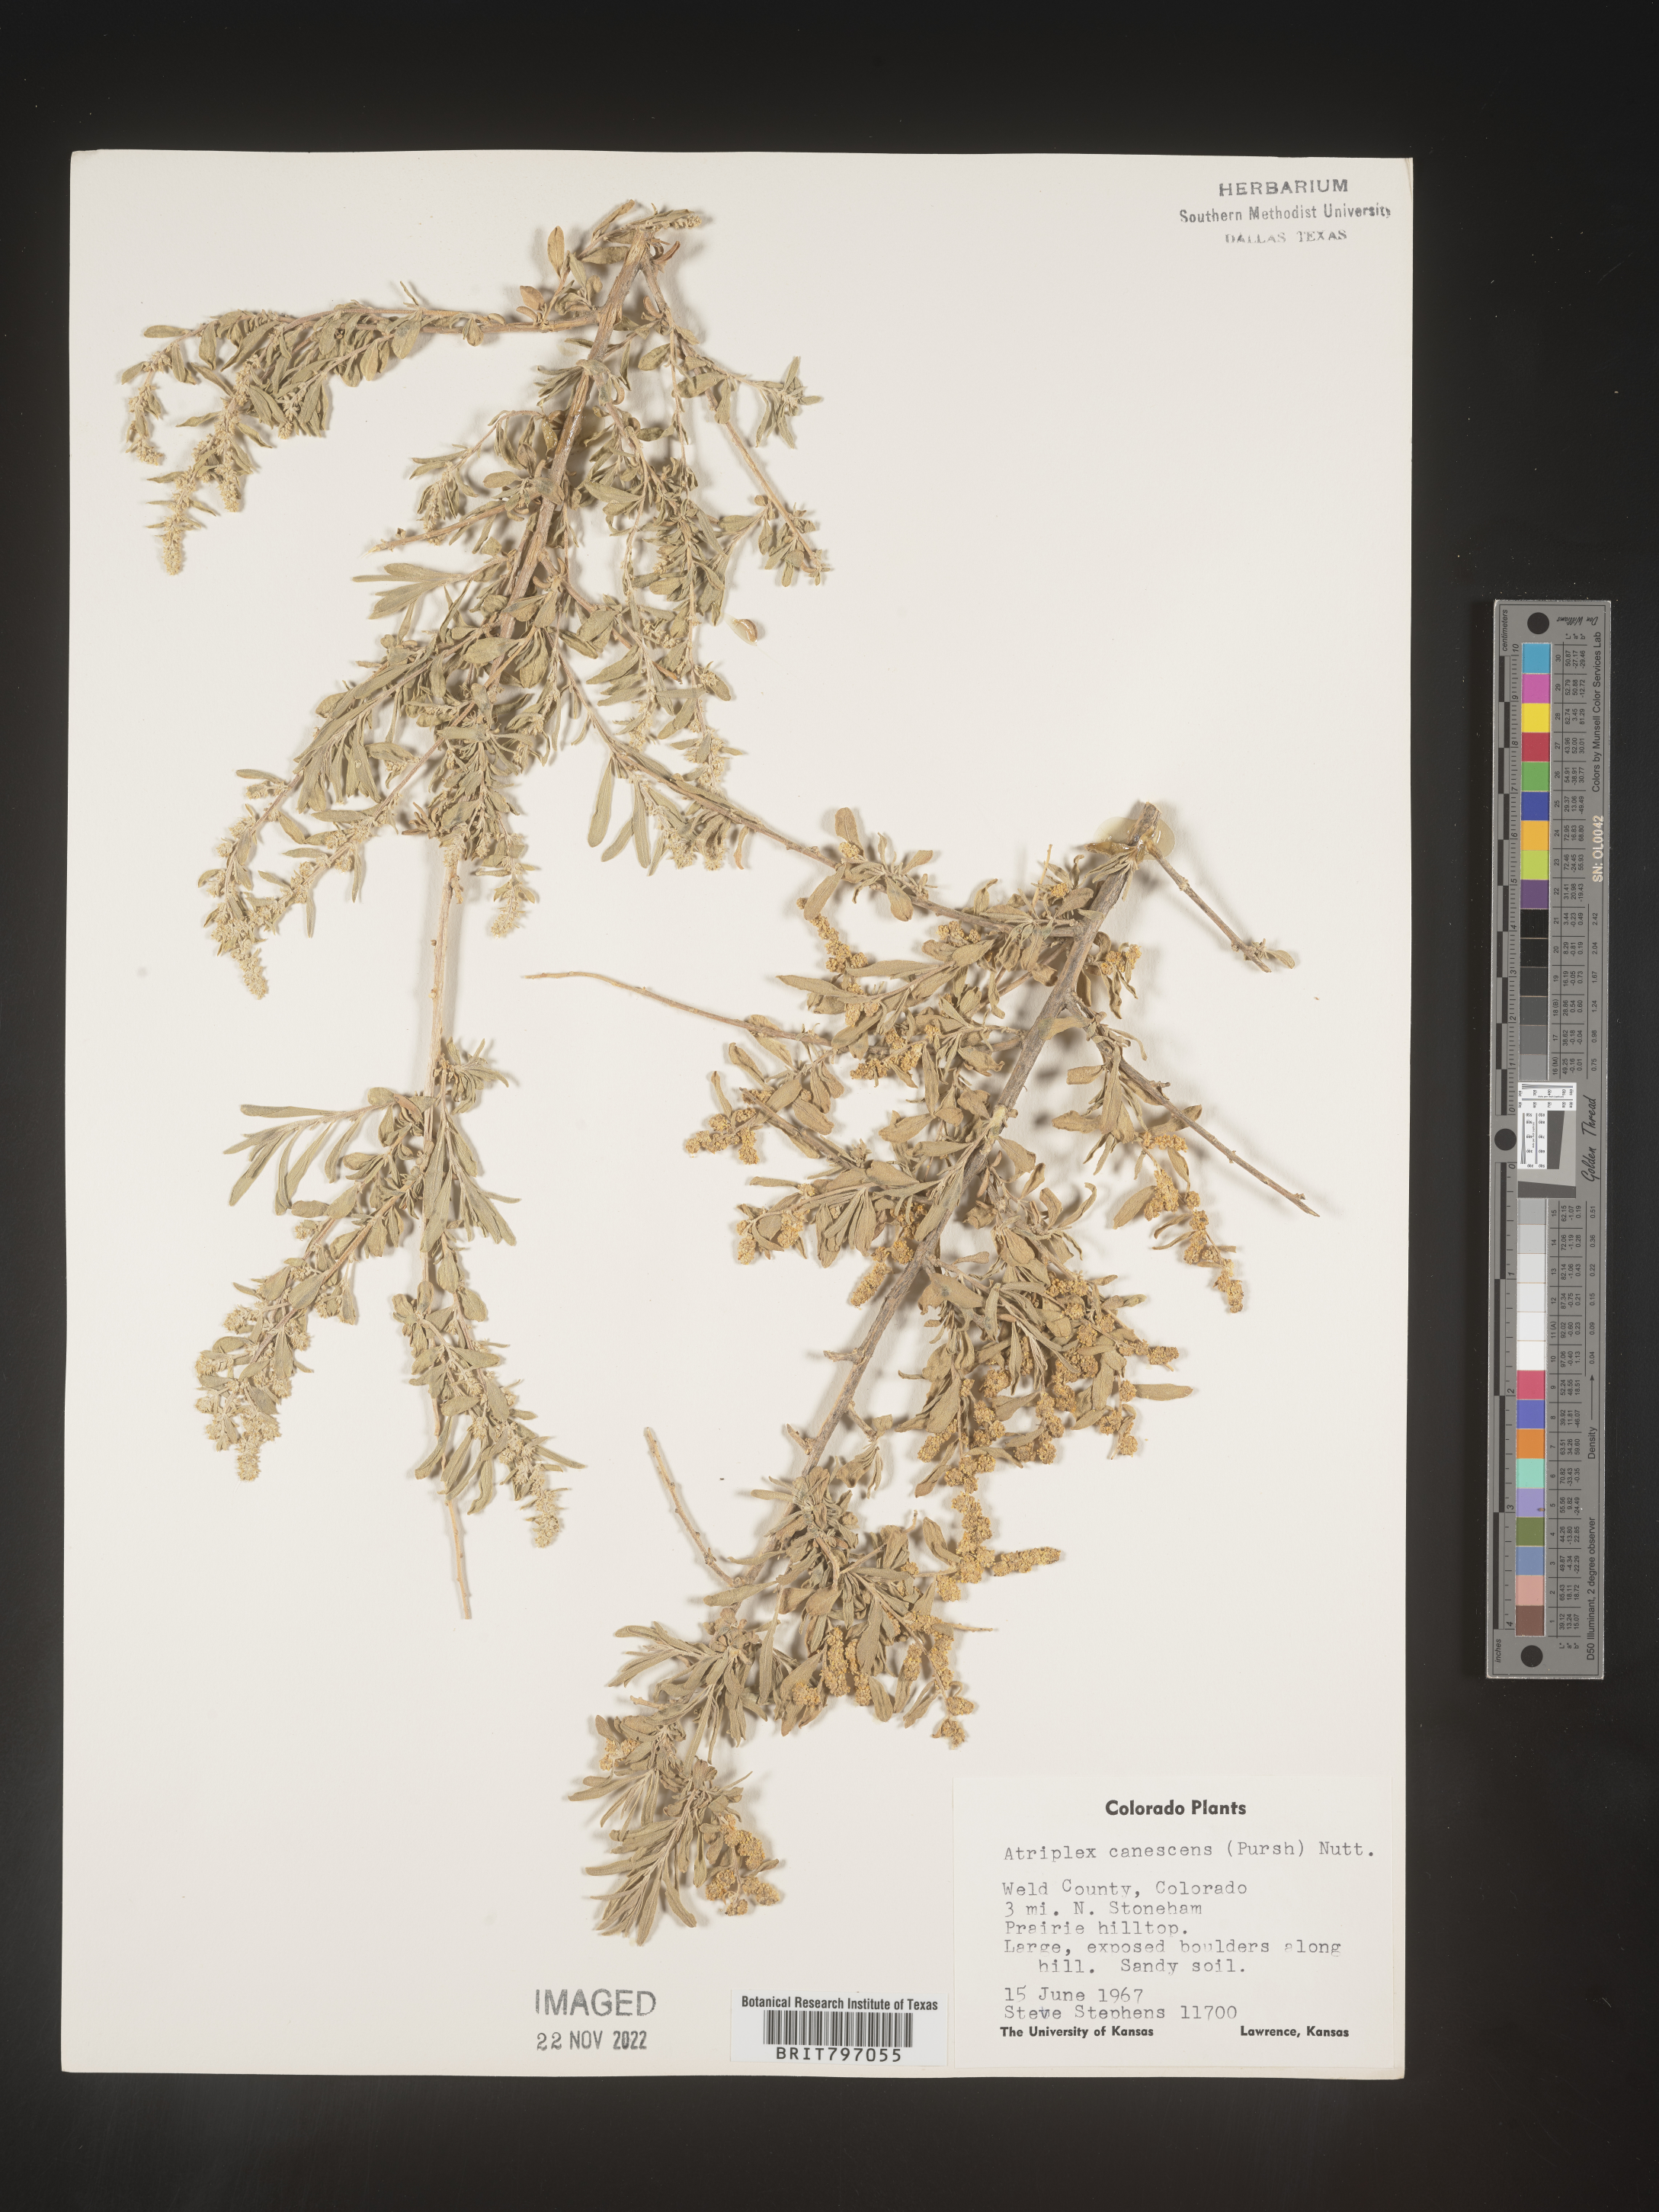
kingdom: Plantae
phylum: Tracheophyta
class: Magnoliopsida
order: Caryophyllales
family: Amaranthaceae
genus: Atriplex
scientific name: Atriplex canescens
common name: Four-wing saltbush
